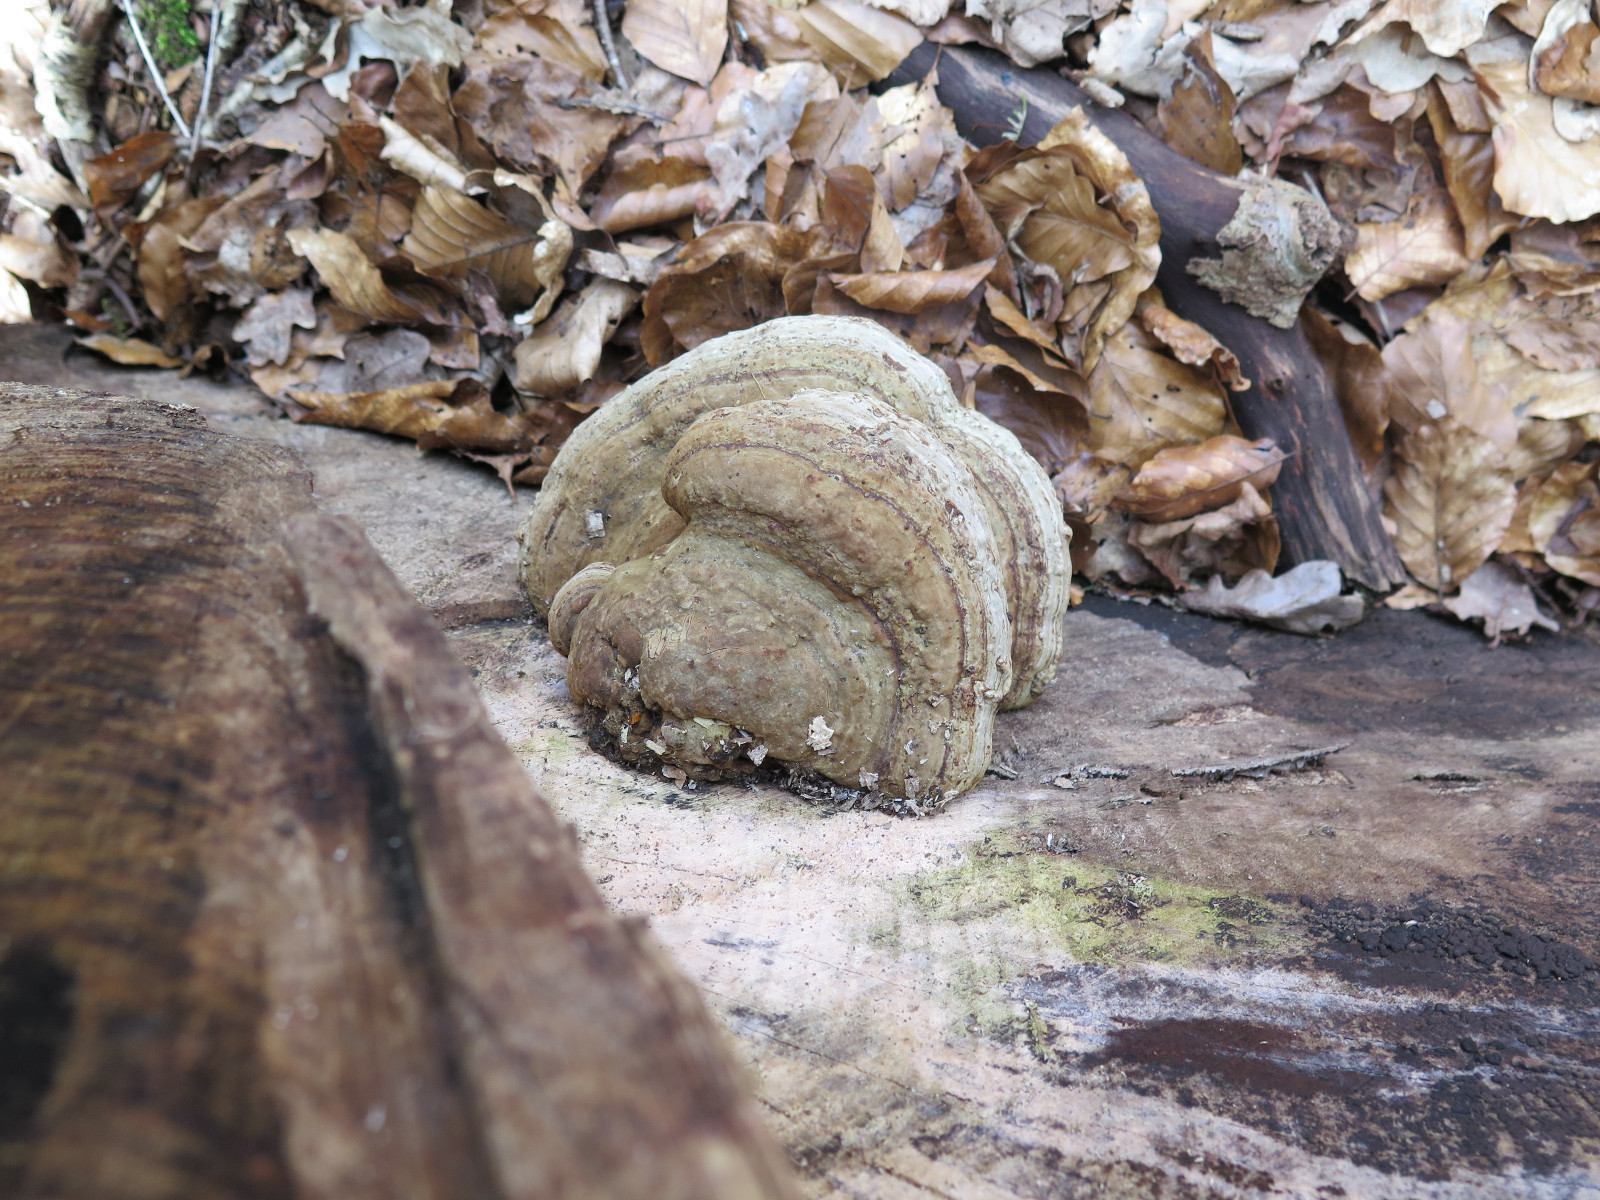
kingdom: Fungi
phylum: Basidiomycota
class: Agaricomycetes
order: Polyporales
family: Polyporaceae
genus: Fomes
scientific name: Fomes fomentarius
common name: tøndersvamp
